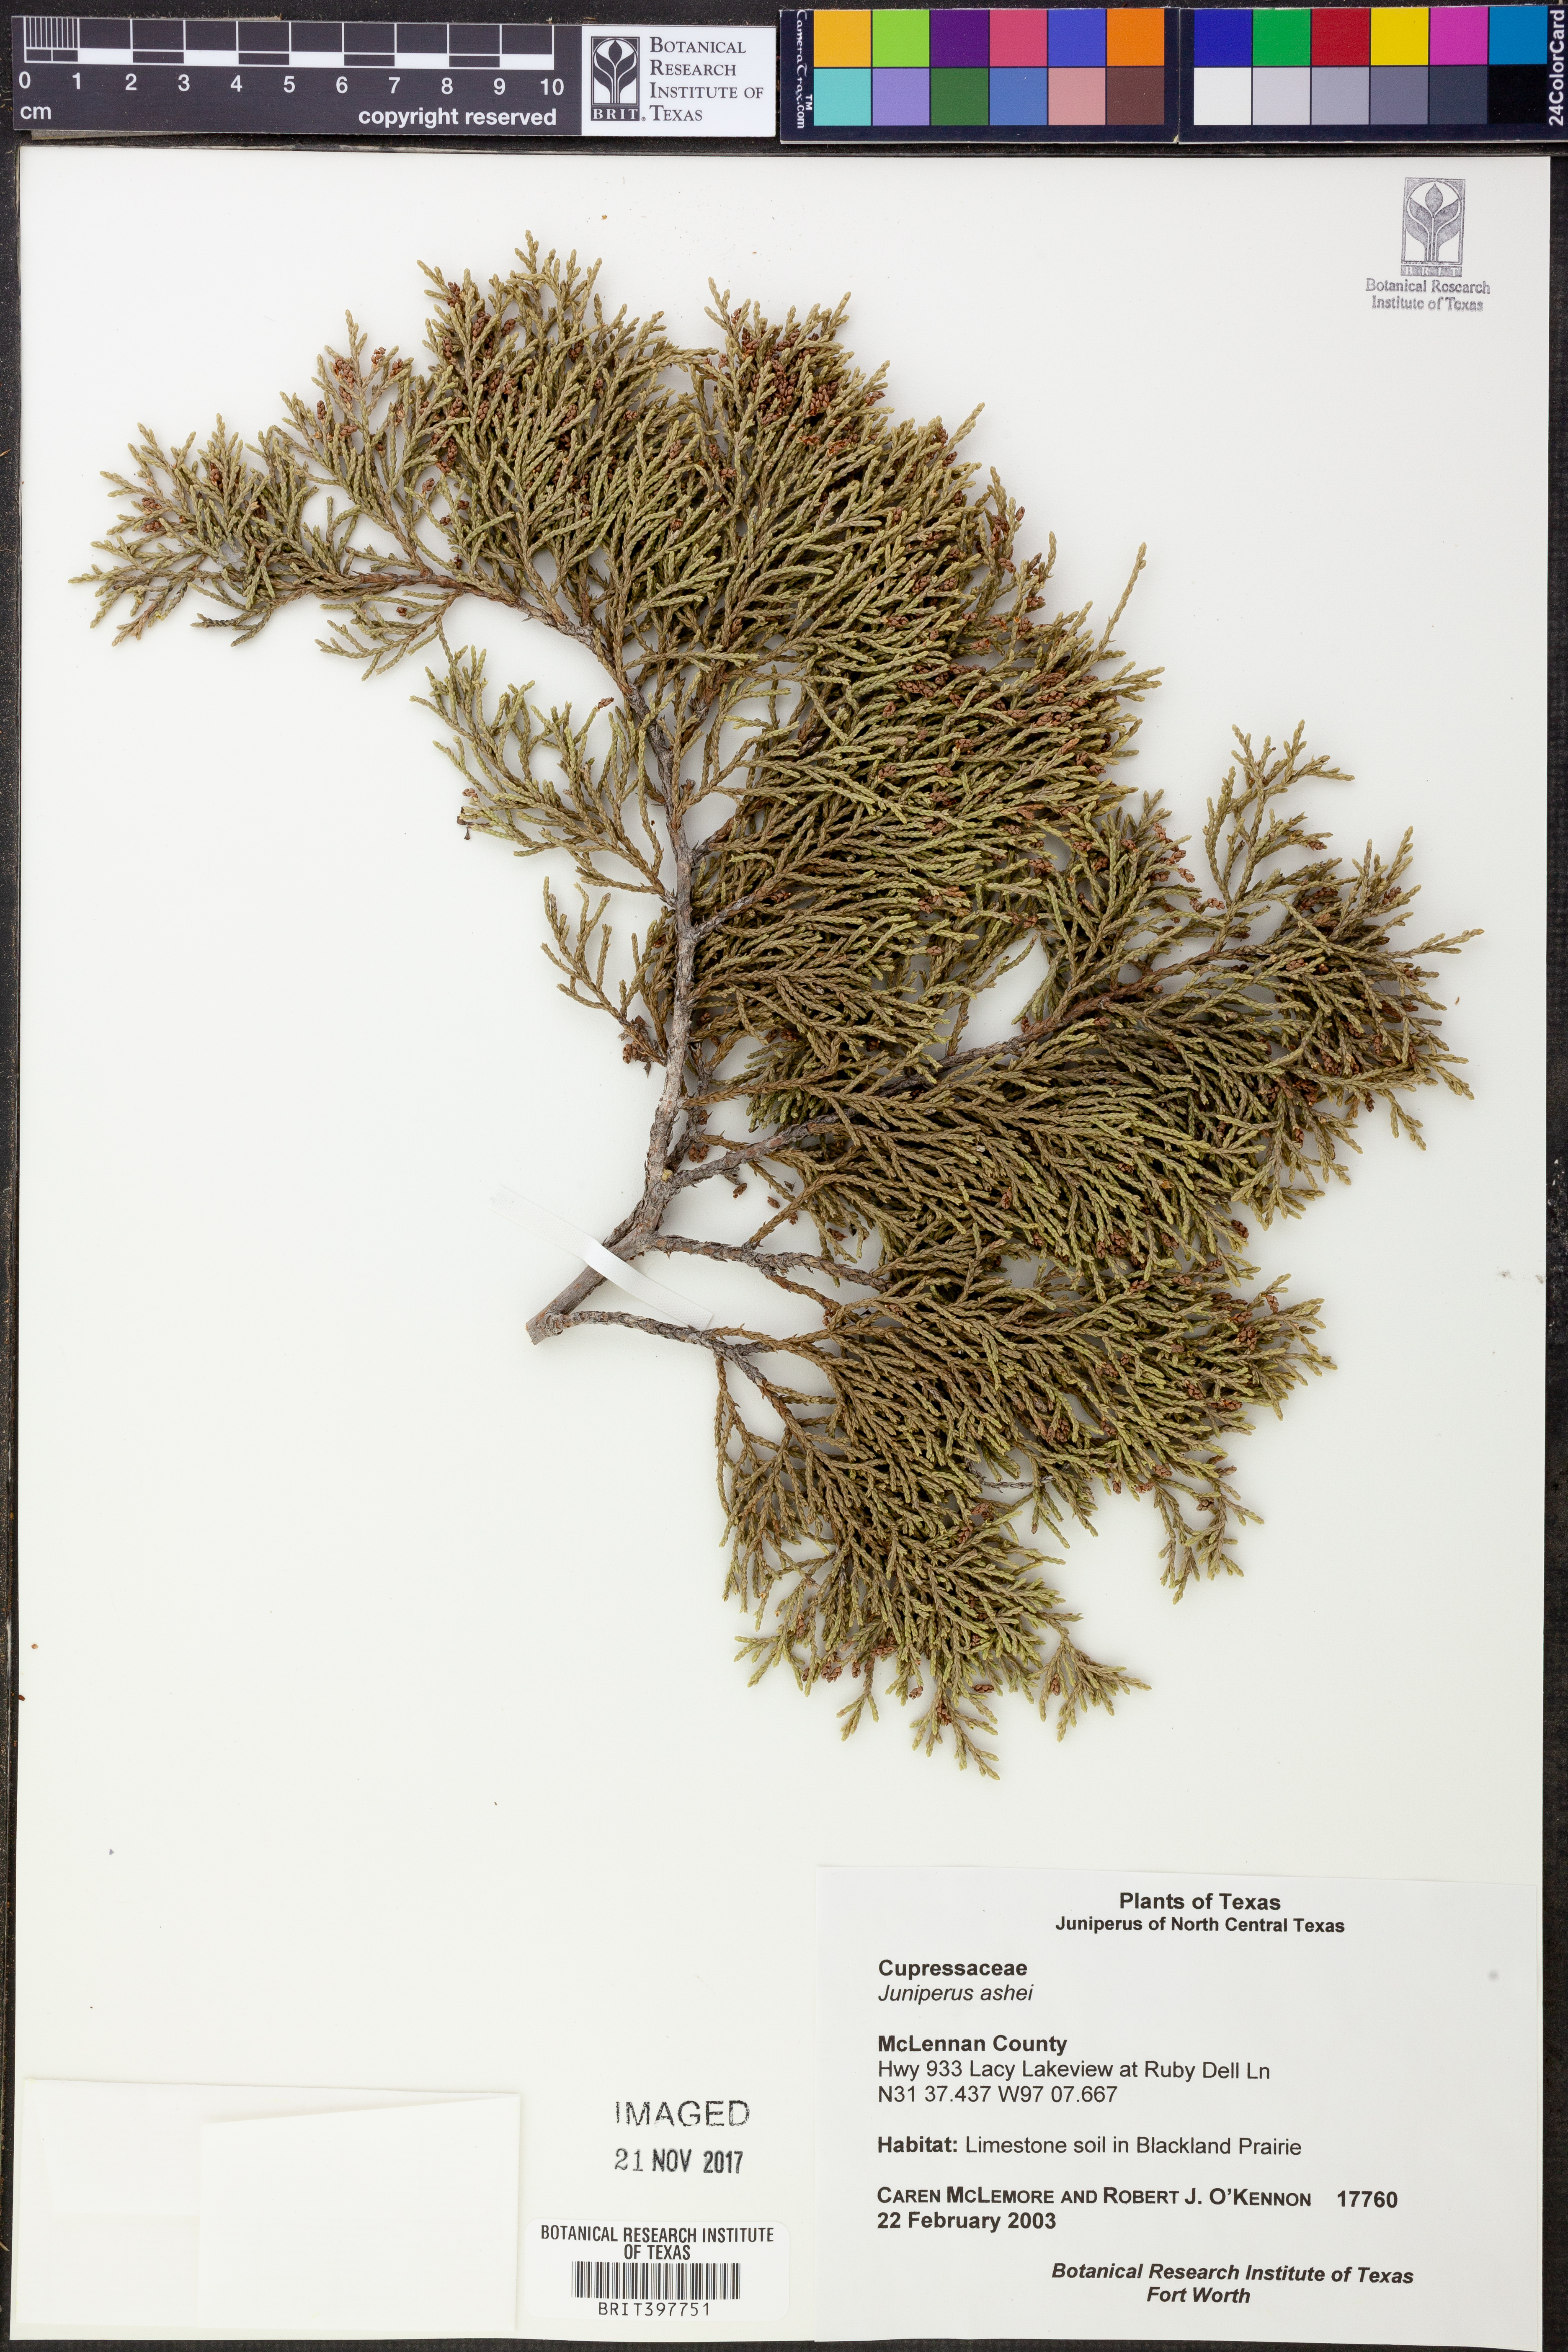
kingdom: Plantae
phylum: Tracheophyta
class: Pinopsida
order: Pinales
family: Cupressaceae
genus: Juniperus
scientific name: Juniperus ashei
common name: Mexican juniper
